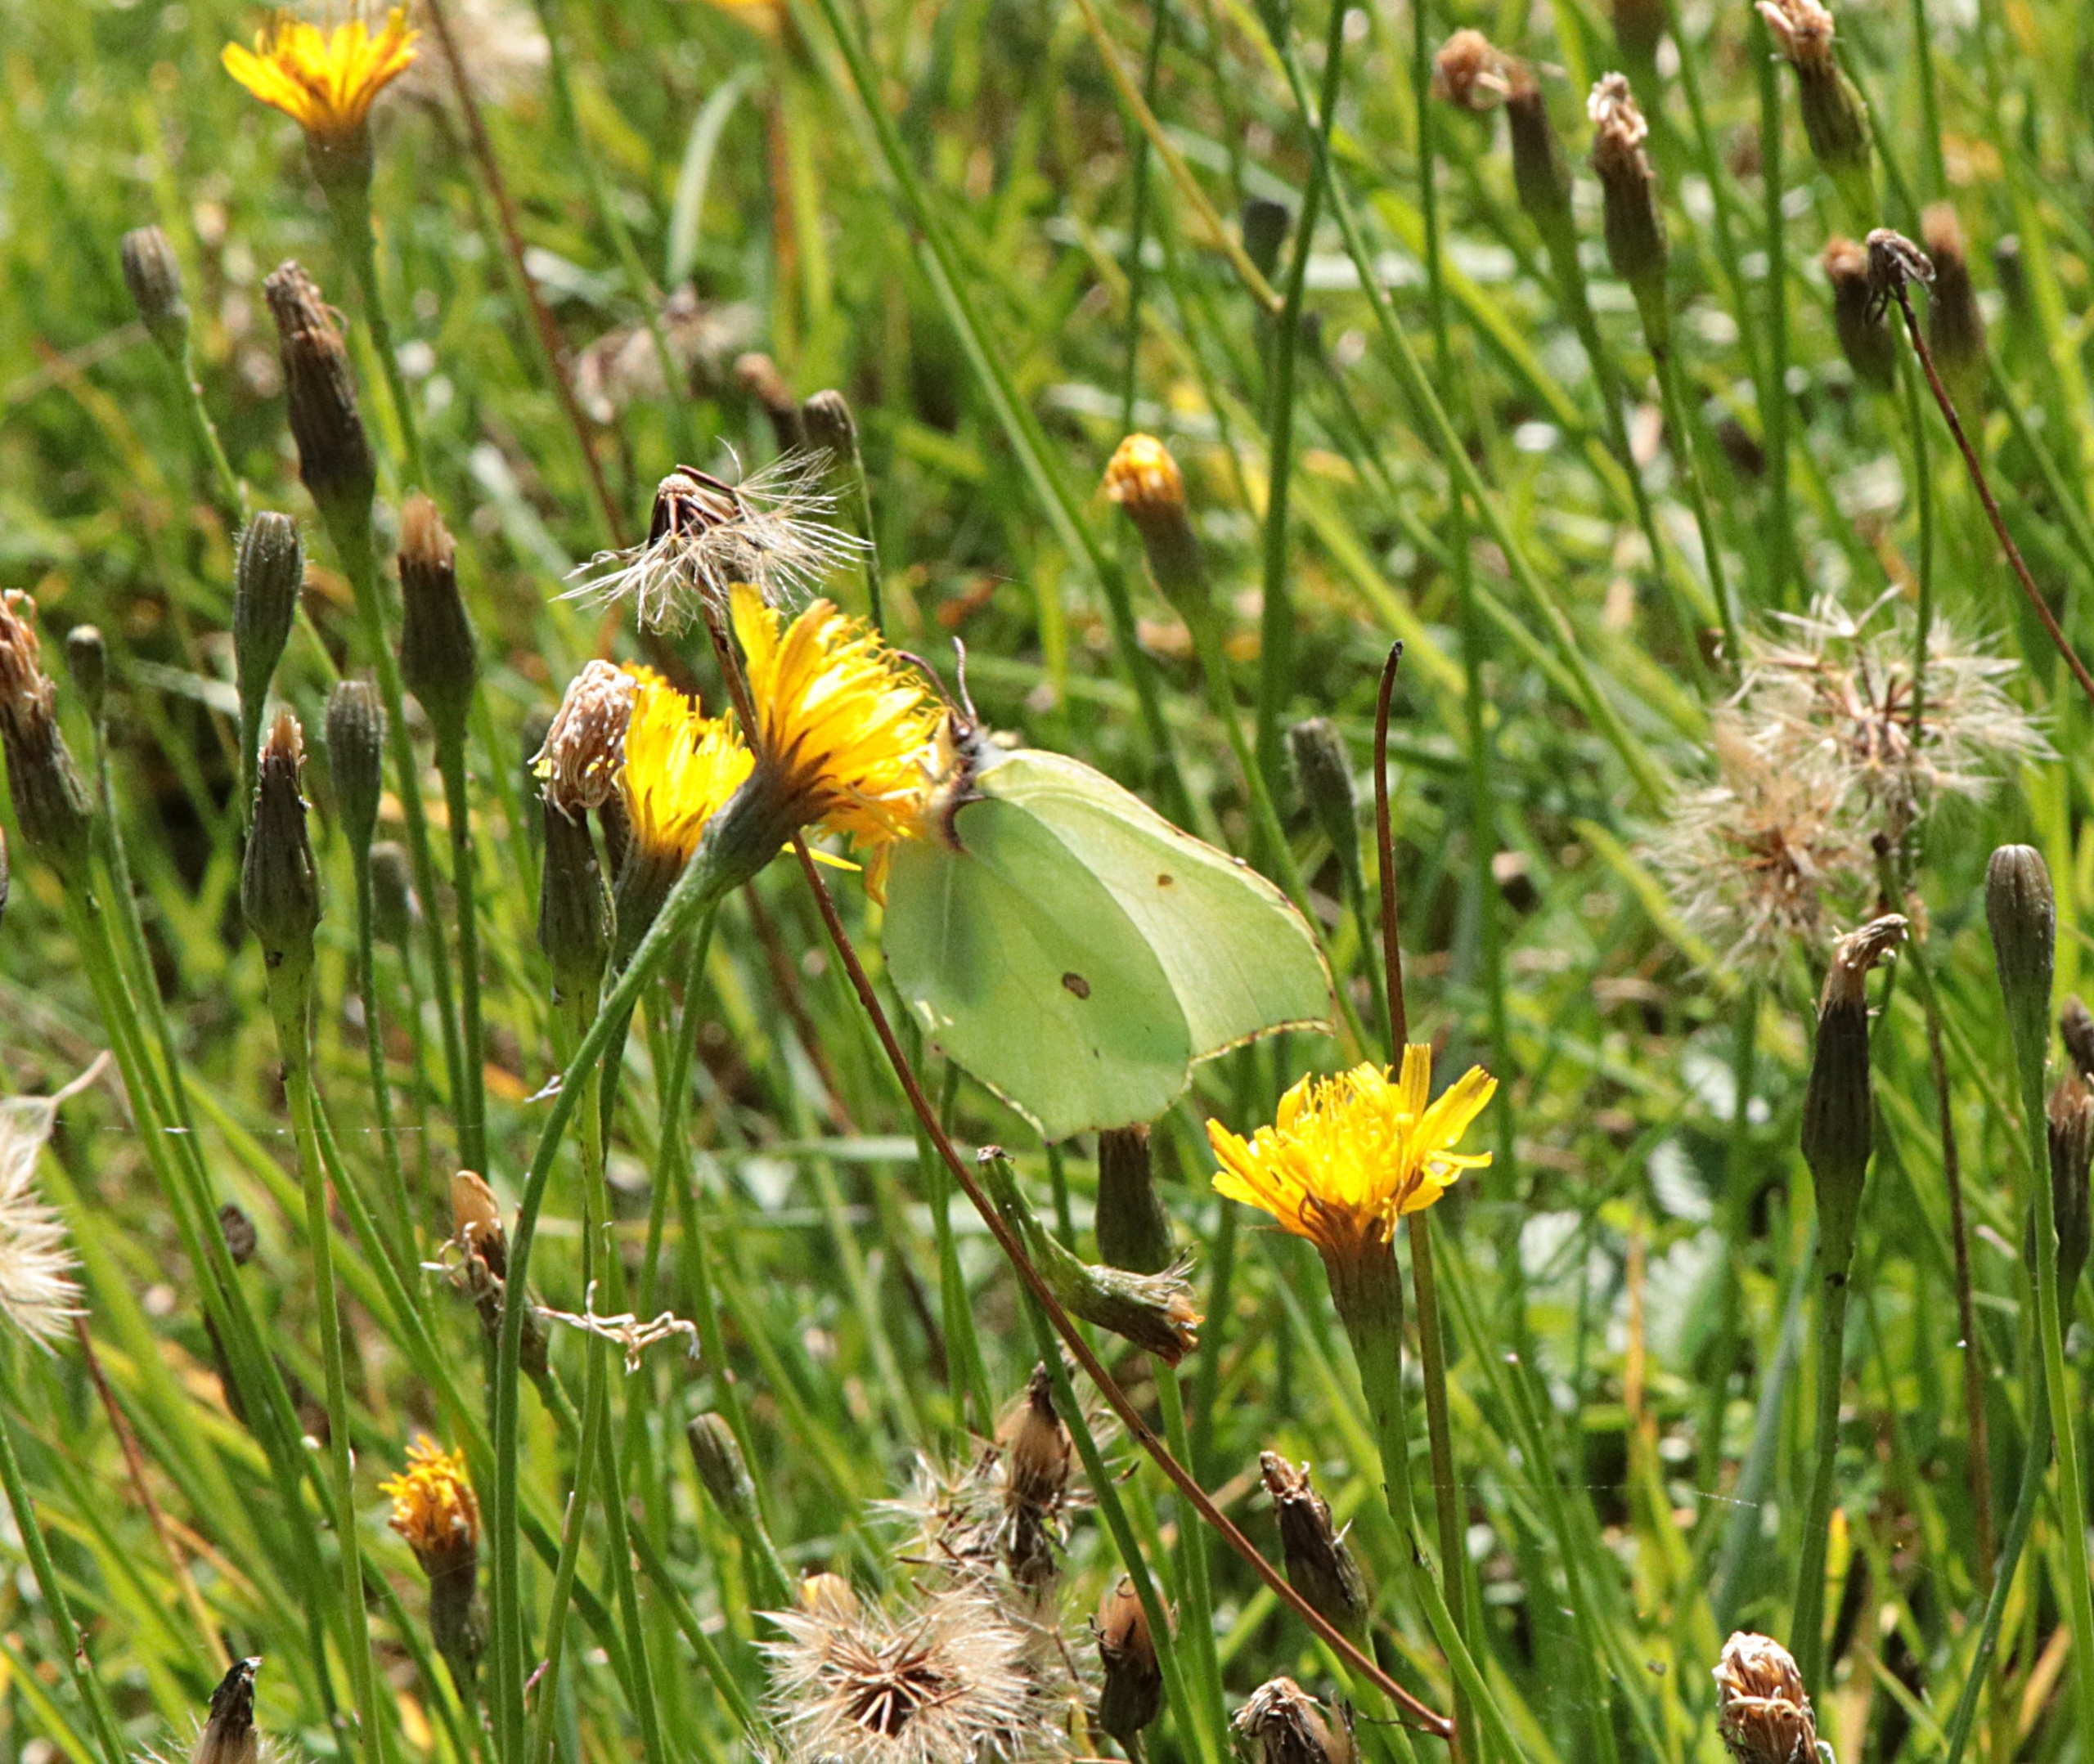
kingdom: Animalia
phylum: Arthropoda
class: Insecta
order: Lepidoptera
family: Pieridae
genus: Gonepteryx
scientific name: Gonepteryx rhamni
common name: Citronsommerfugl
